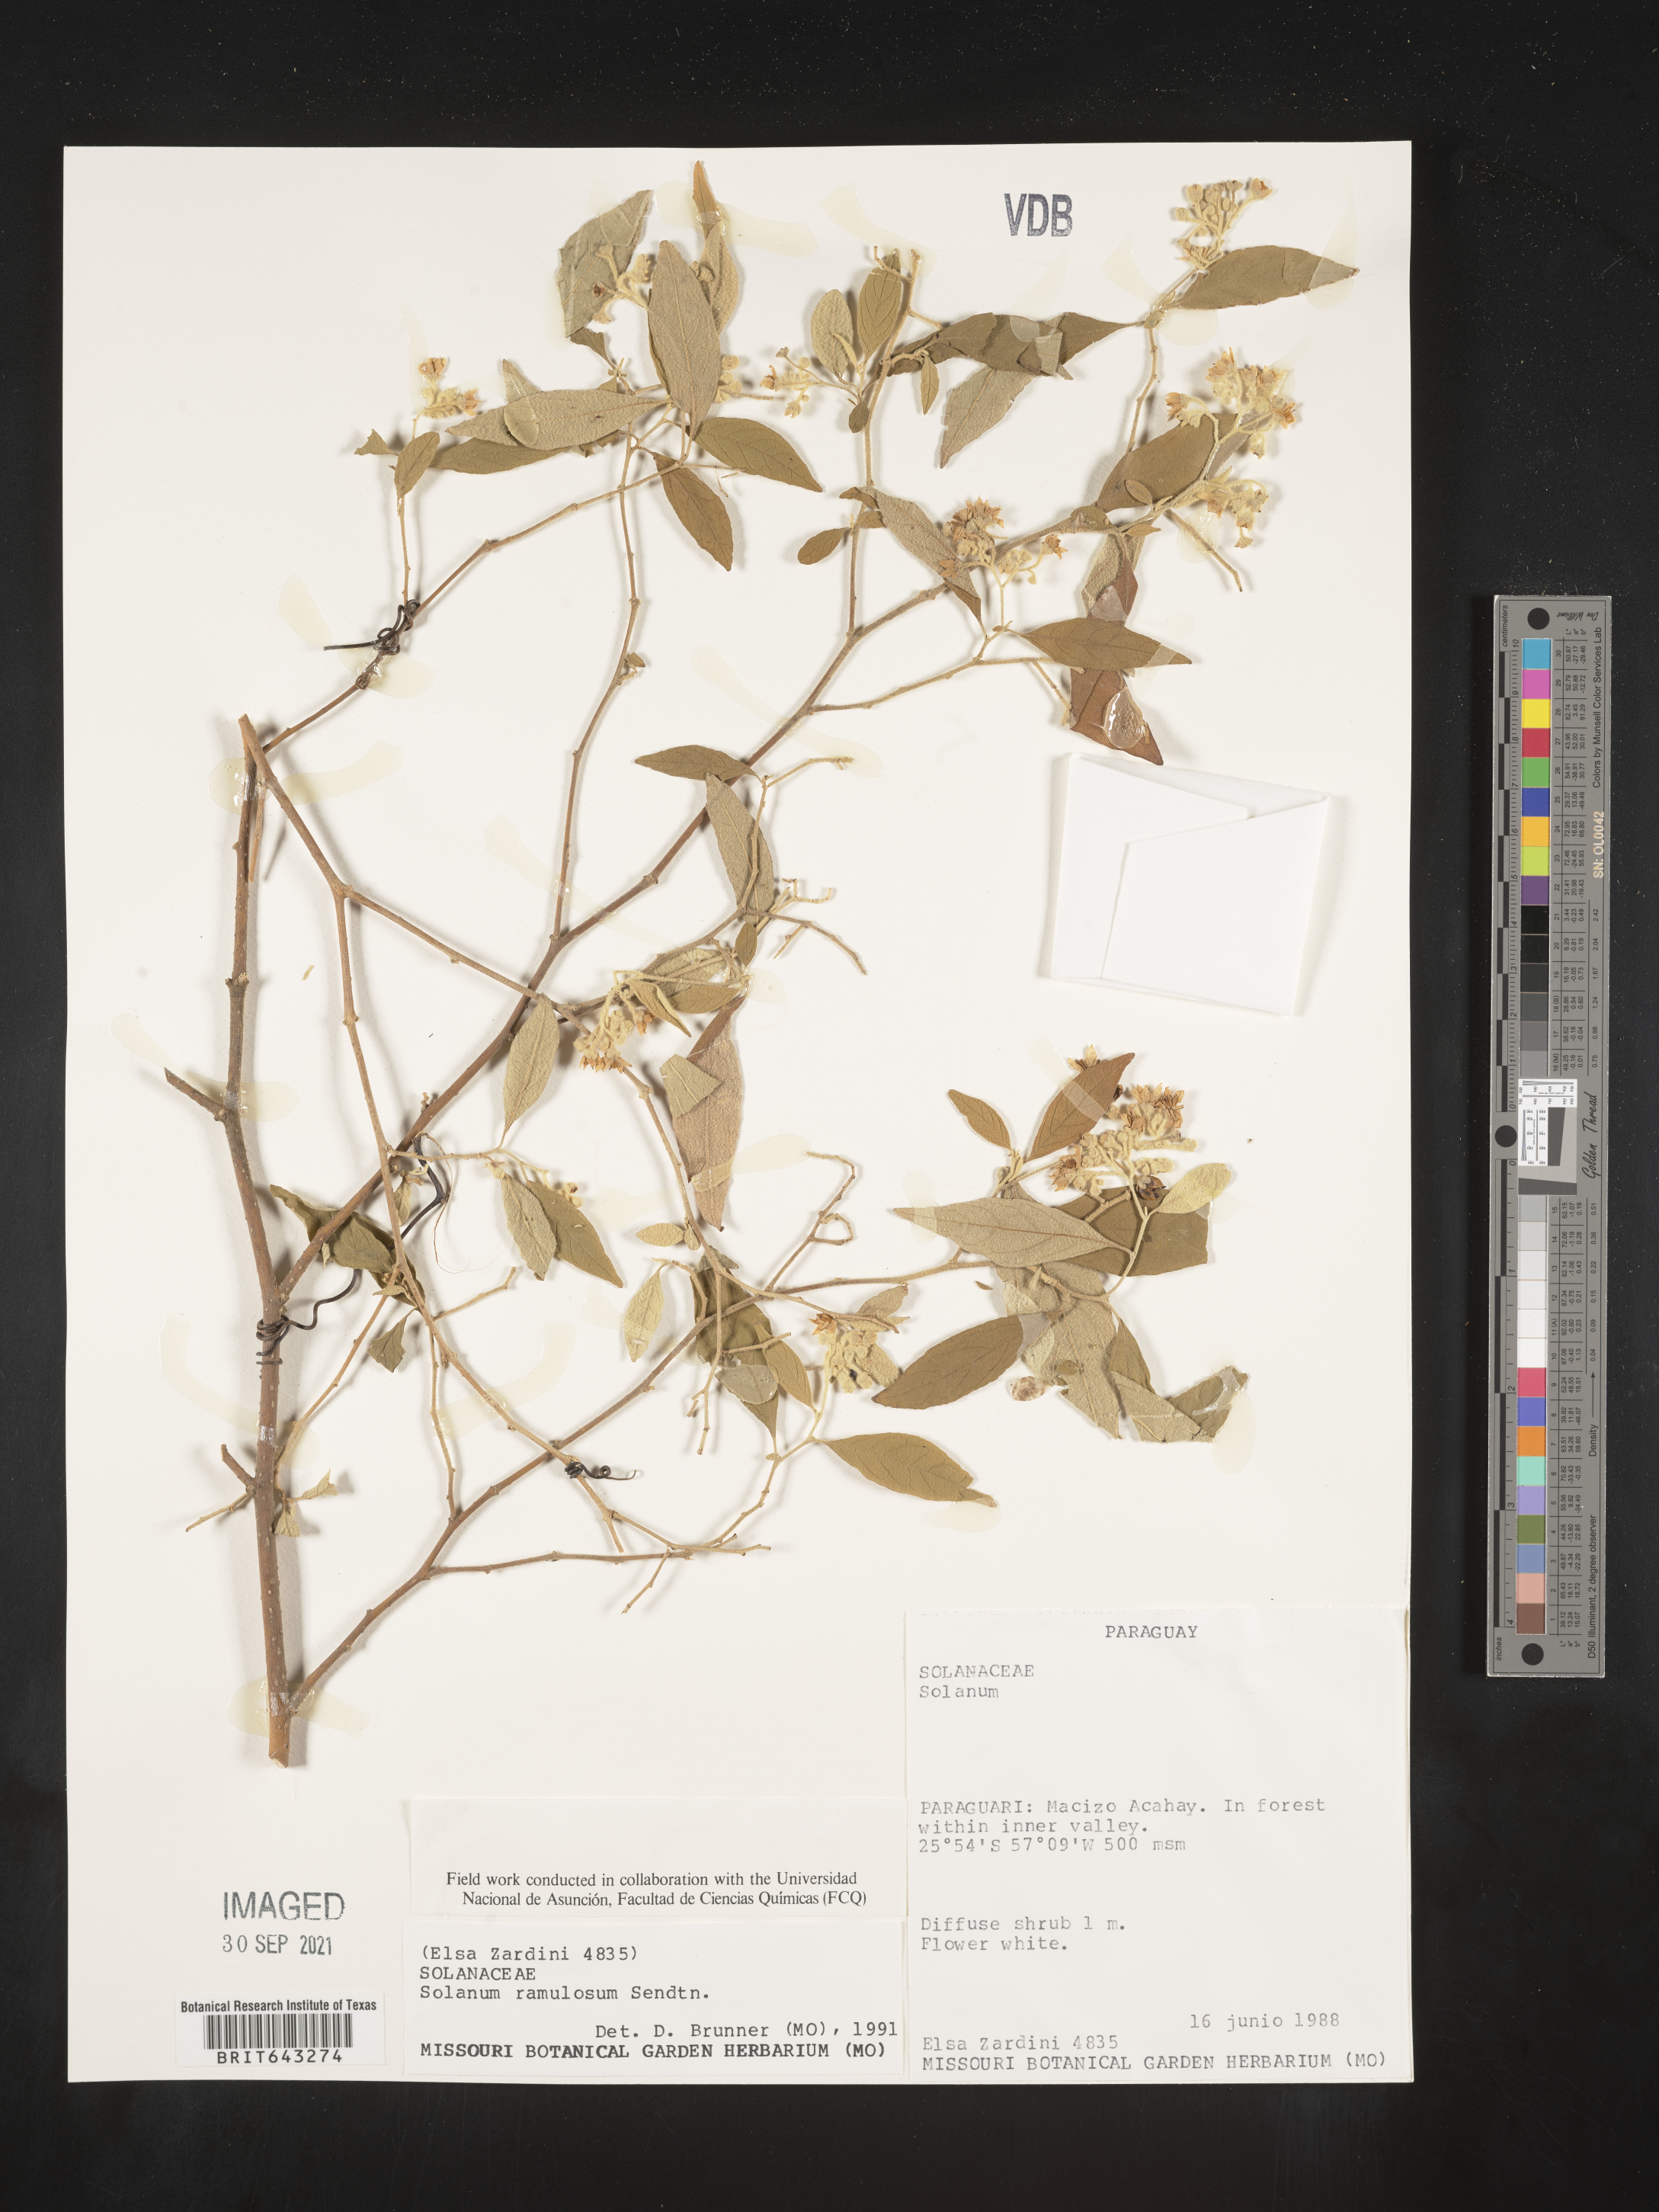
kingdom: Plantae
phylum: Tracheophyta
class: Magnoliopsida
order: Solanales
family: Solanaceae
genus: Solanum
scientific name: Solanum
